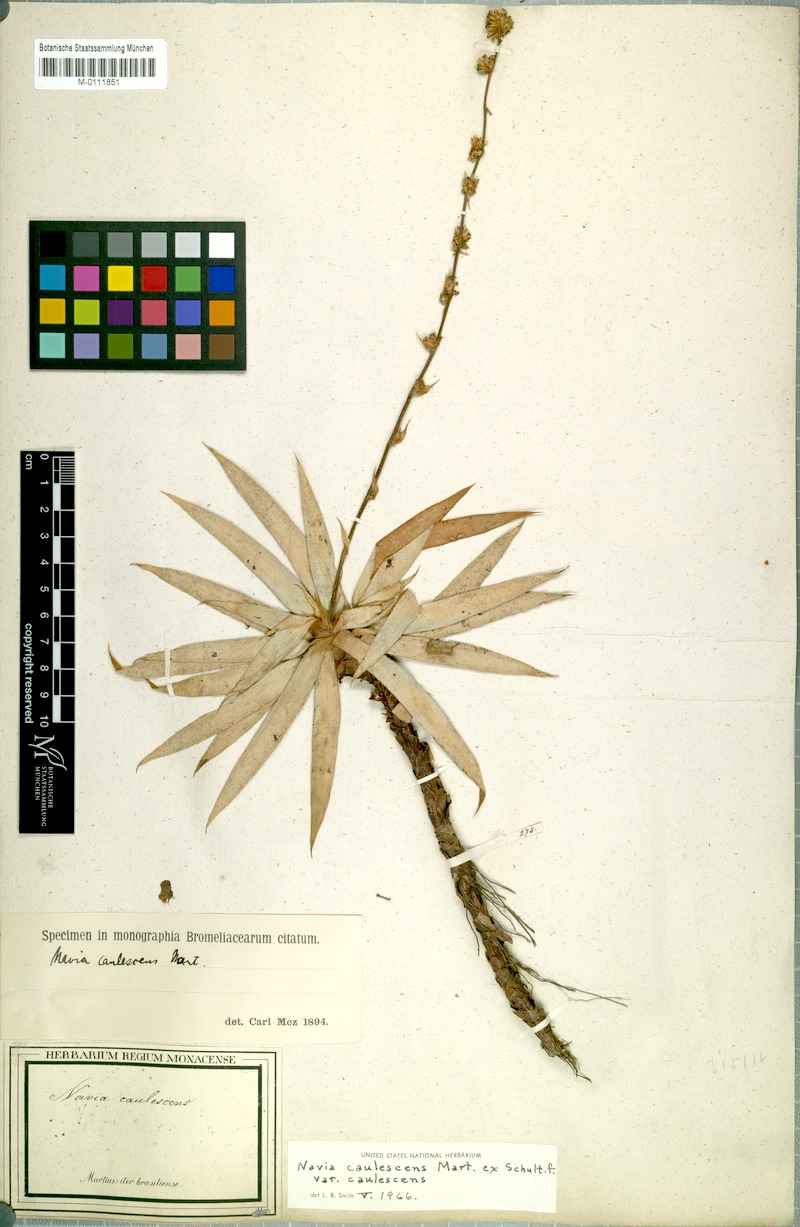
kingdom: Plantae
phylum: Tracheophyta
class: Liliopsida
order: Poales
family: Bromeliaceae
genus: Navia
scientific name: Navia caulescens
